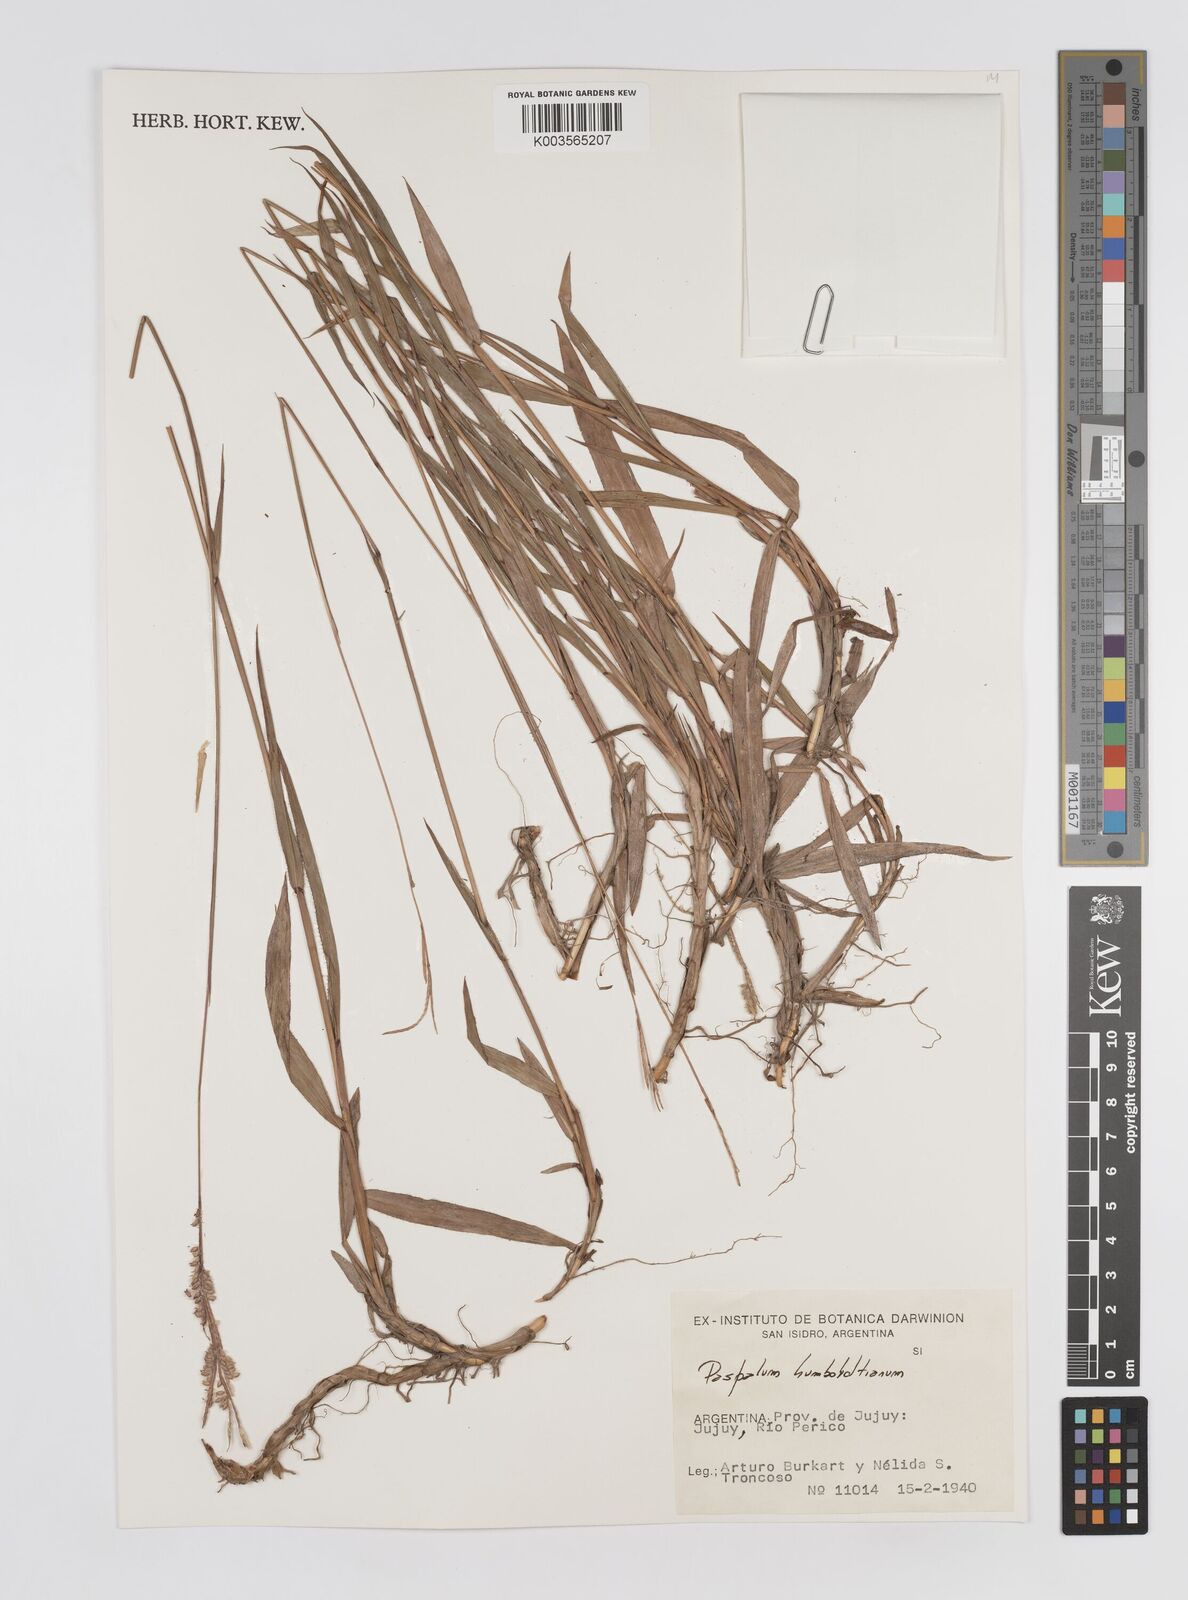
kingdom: Plantae
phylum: Tracheophyta
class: Liliopsida
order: Poales
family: Poaceae
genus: Paspalum
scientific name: Paspalum humboldtianum
